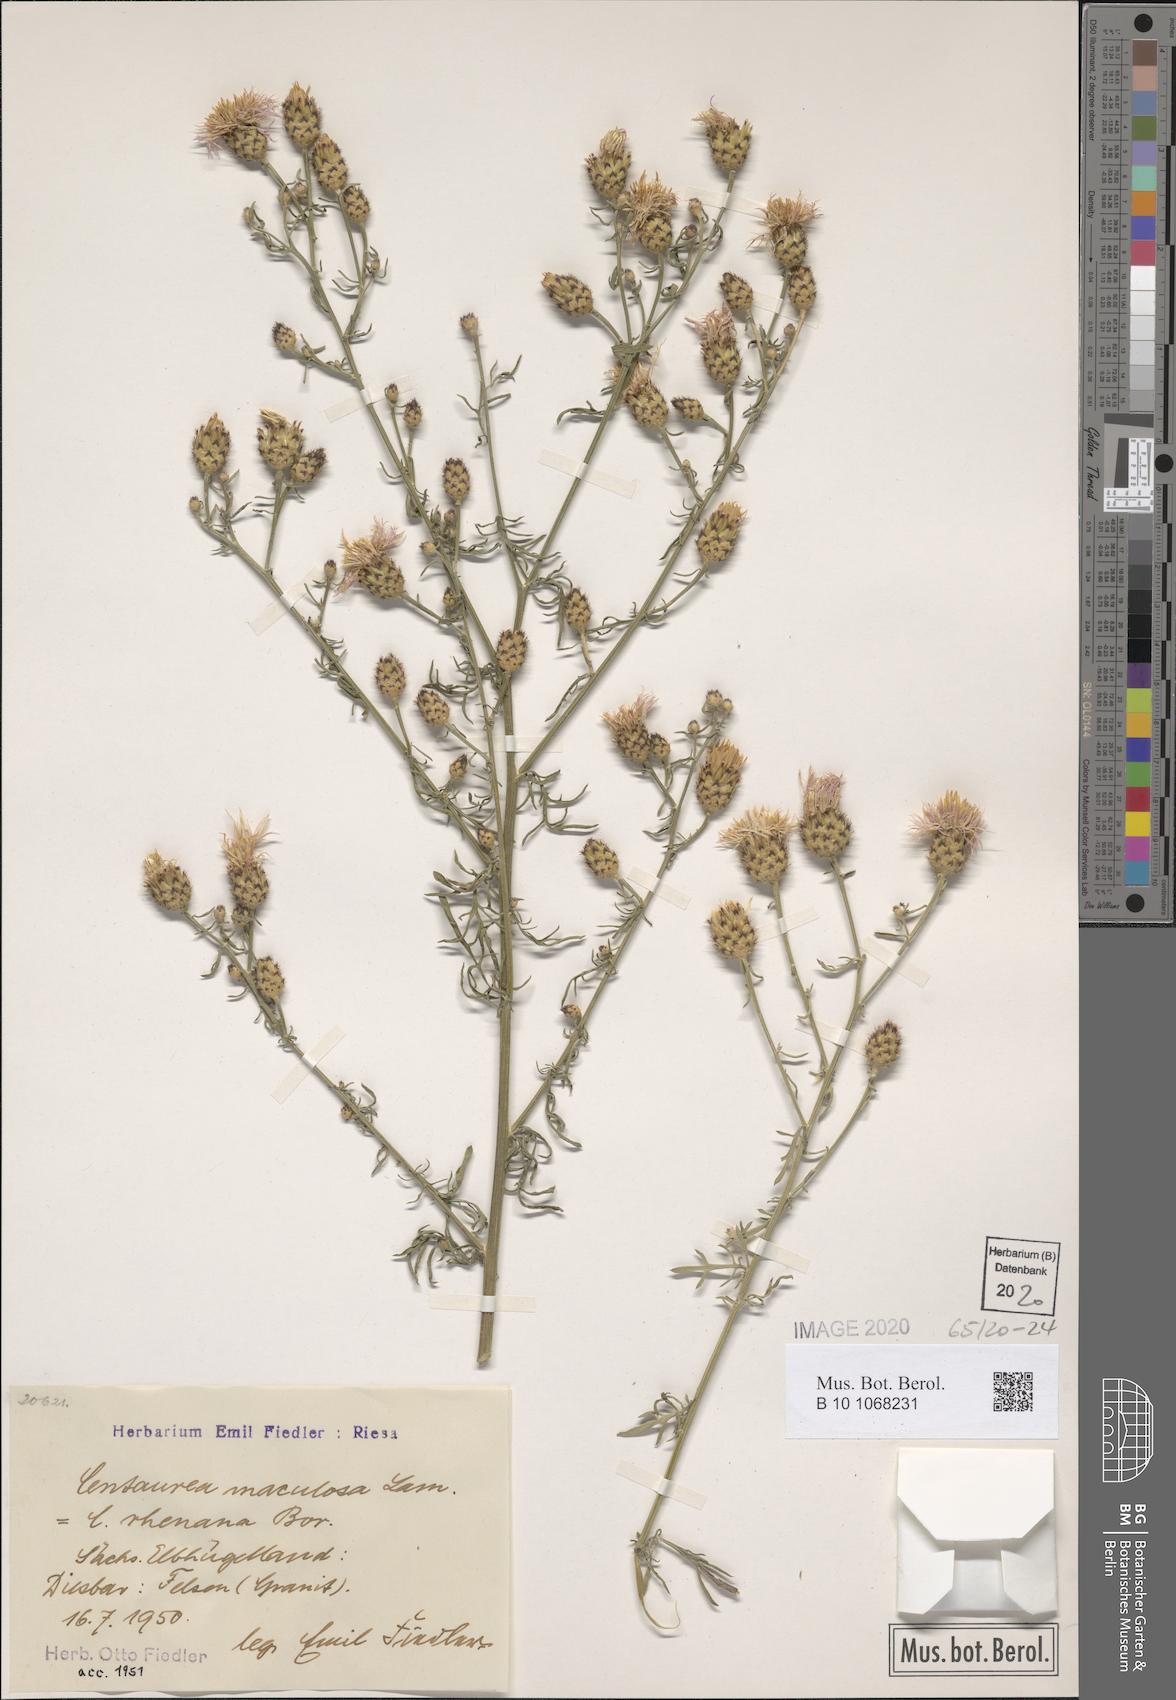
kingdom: Plantae
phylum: Tracheophyta
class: Magnoliopsida
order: Asterales
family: Asteraceae
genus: Centaurea
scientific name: Centaurea stoebe
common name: Spotted knapweed
